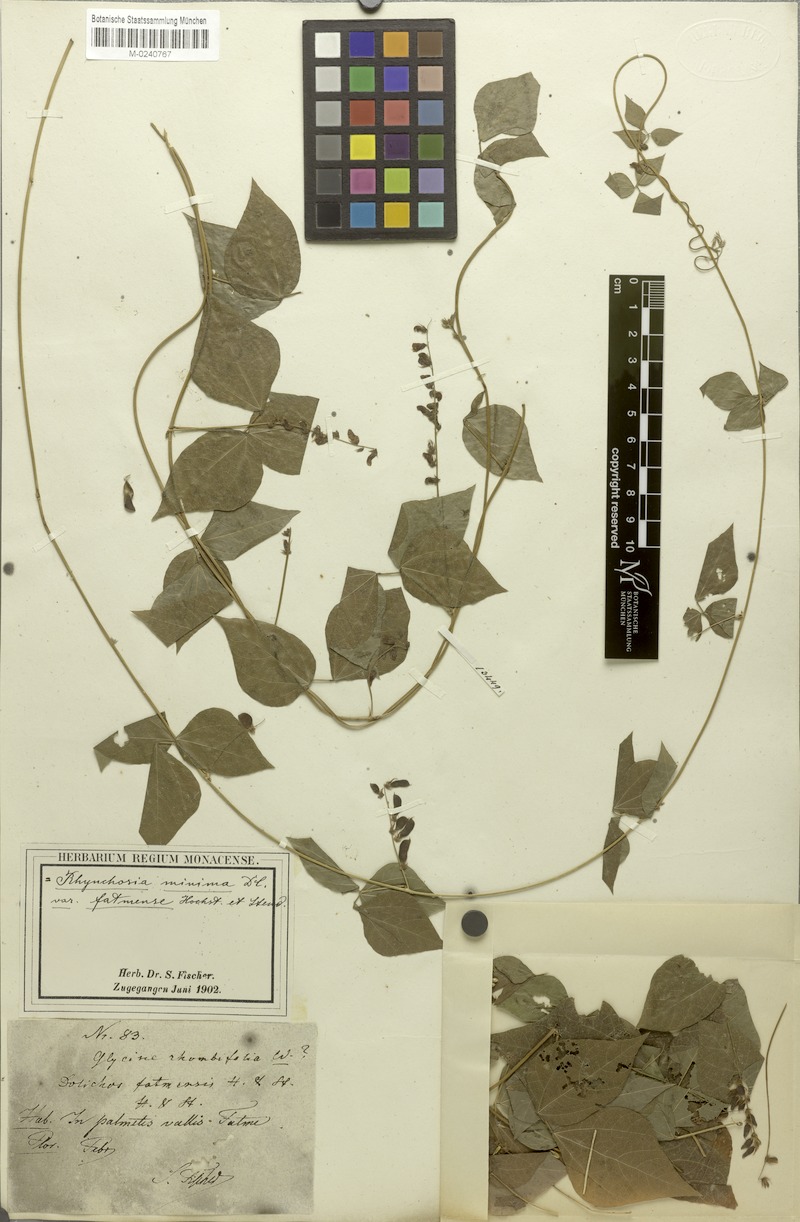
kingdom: Plantae
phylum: Tracheophyta
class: Magnoliopsida
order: Fabales
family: Fabaceae
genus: Rhynchosia
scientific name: Rhynchosia minima
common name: Least snoutbean
